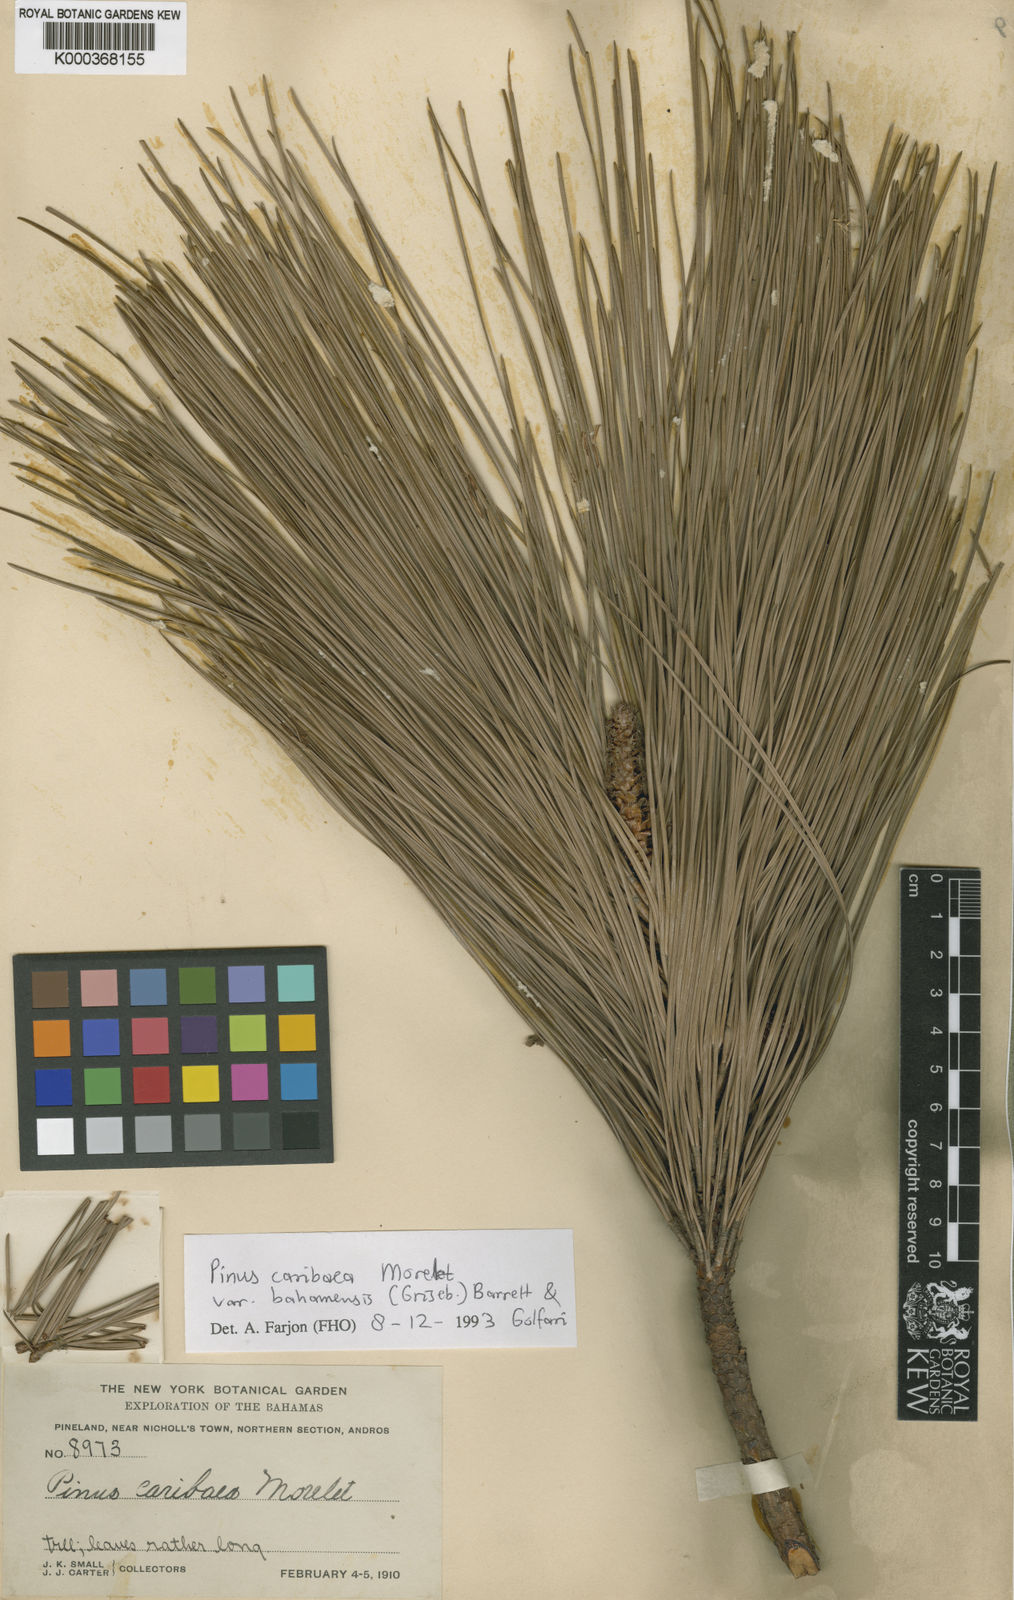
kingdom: Plantae
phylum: Tracheophyta
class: Pinopsida
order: Pinales
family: Pinaceae
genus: Pinus
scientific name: Pinus caribaea
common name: Caribbean pine
